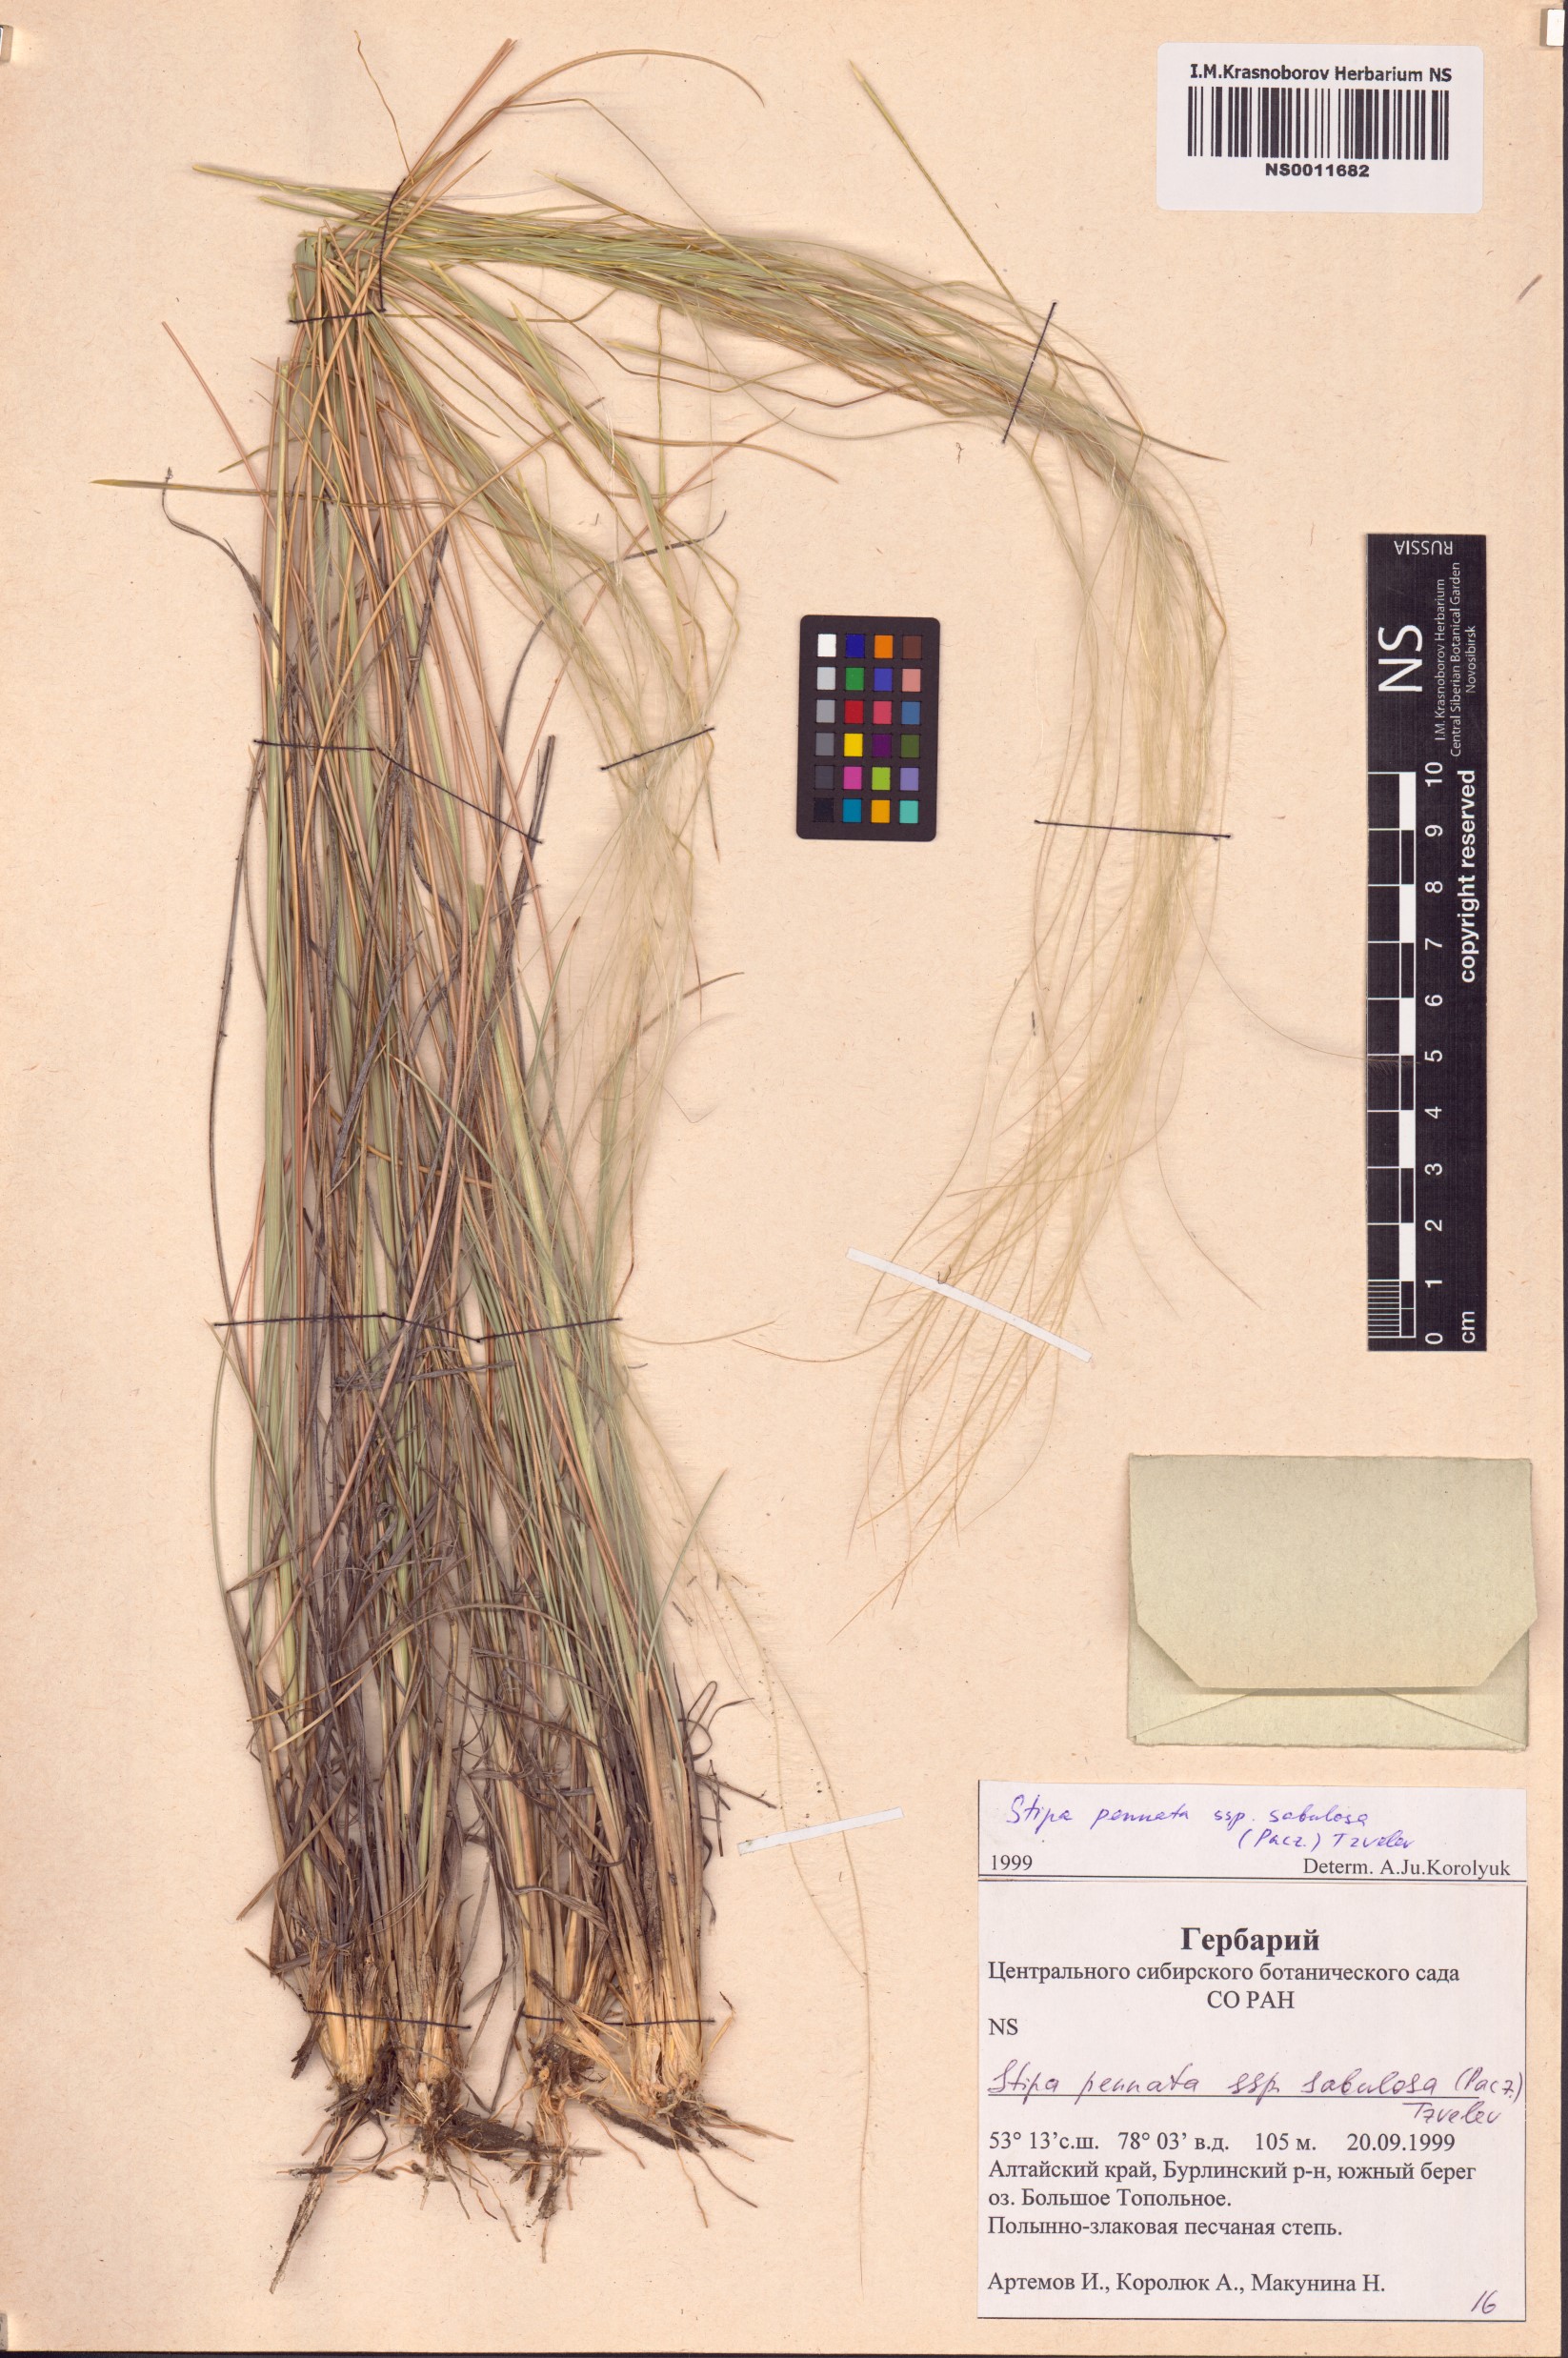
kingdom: Plantae
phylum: Tracheophyta
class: Liliopsida
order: Poales
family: Poaceae
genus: Stipa
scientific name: Stipa borysthenica
